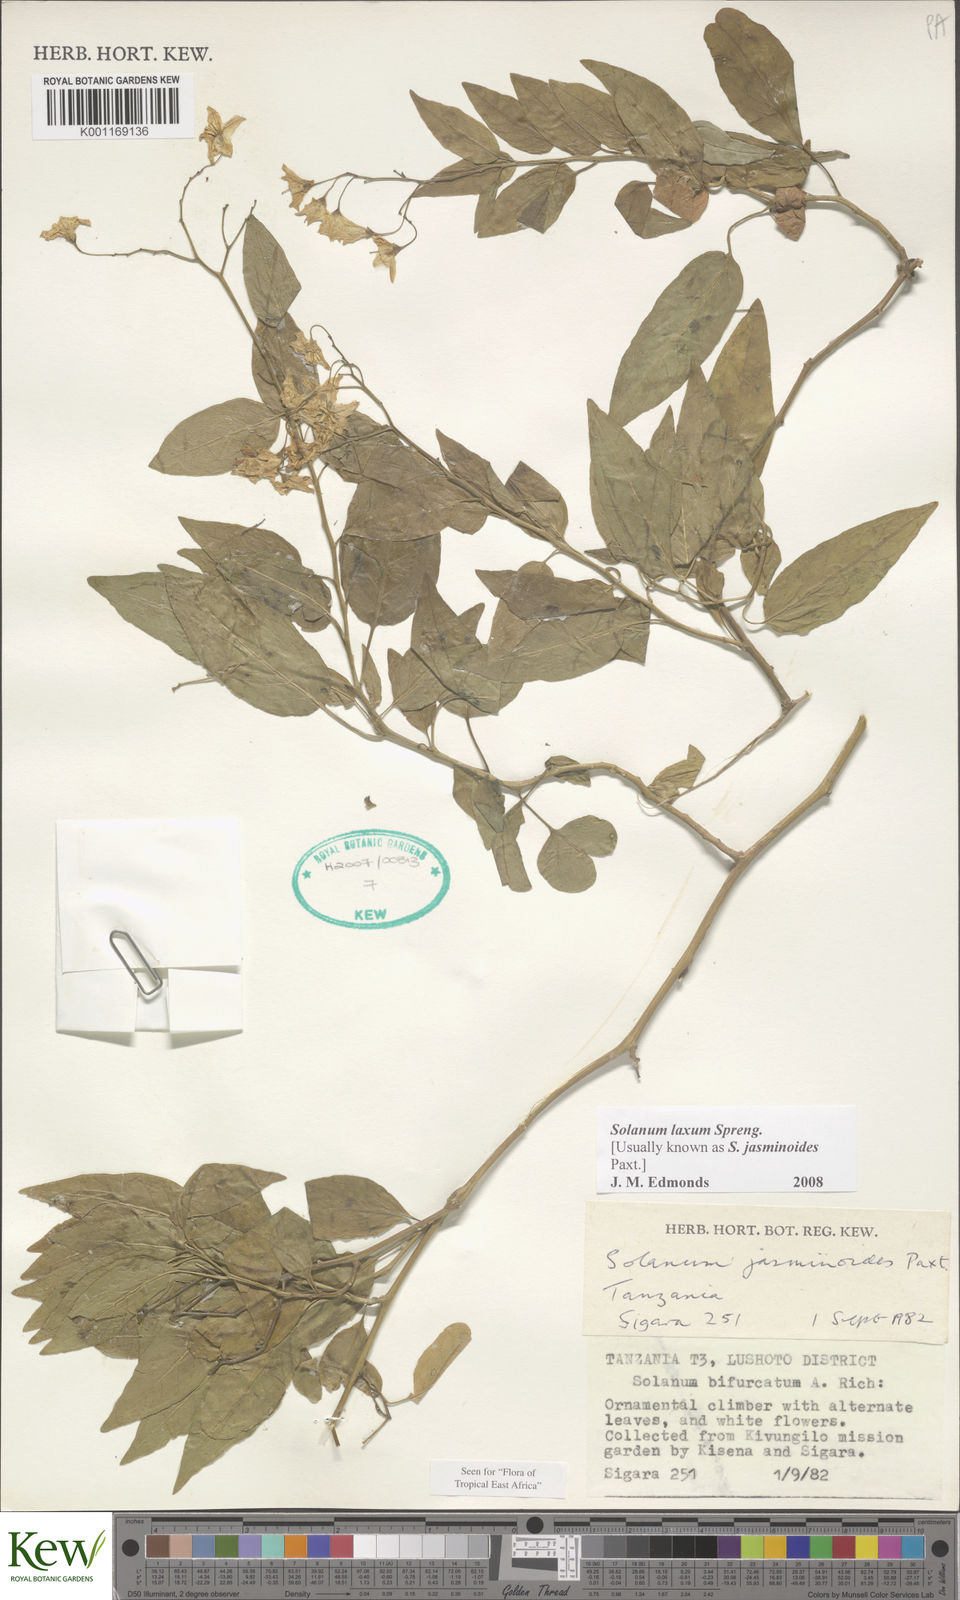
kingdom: Plantae
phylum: Tracheophyta
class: Magnoliopsida
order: Solanales
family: Solanaceae
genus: Solanum
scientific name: Solanum laxum
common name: Nightshade
